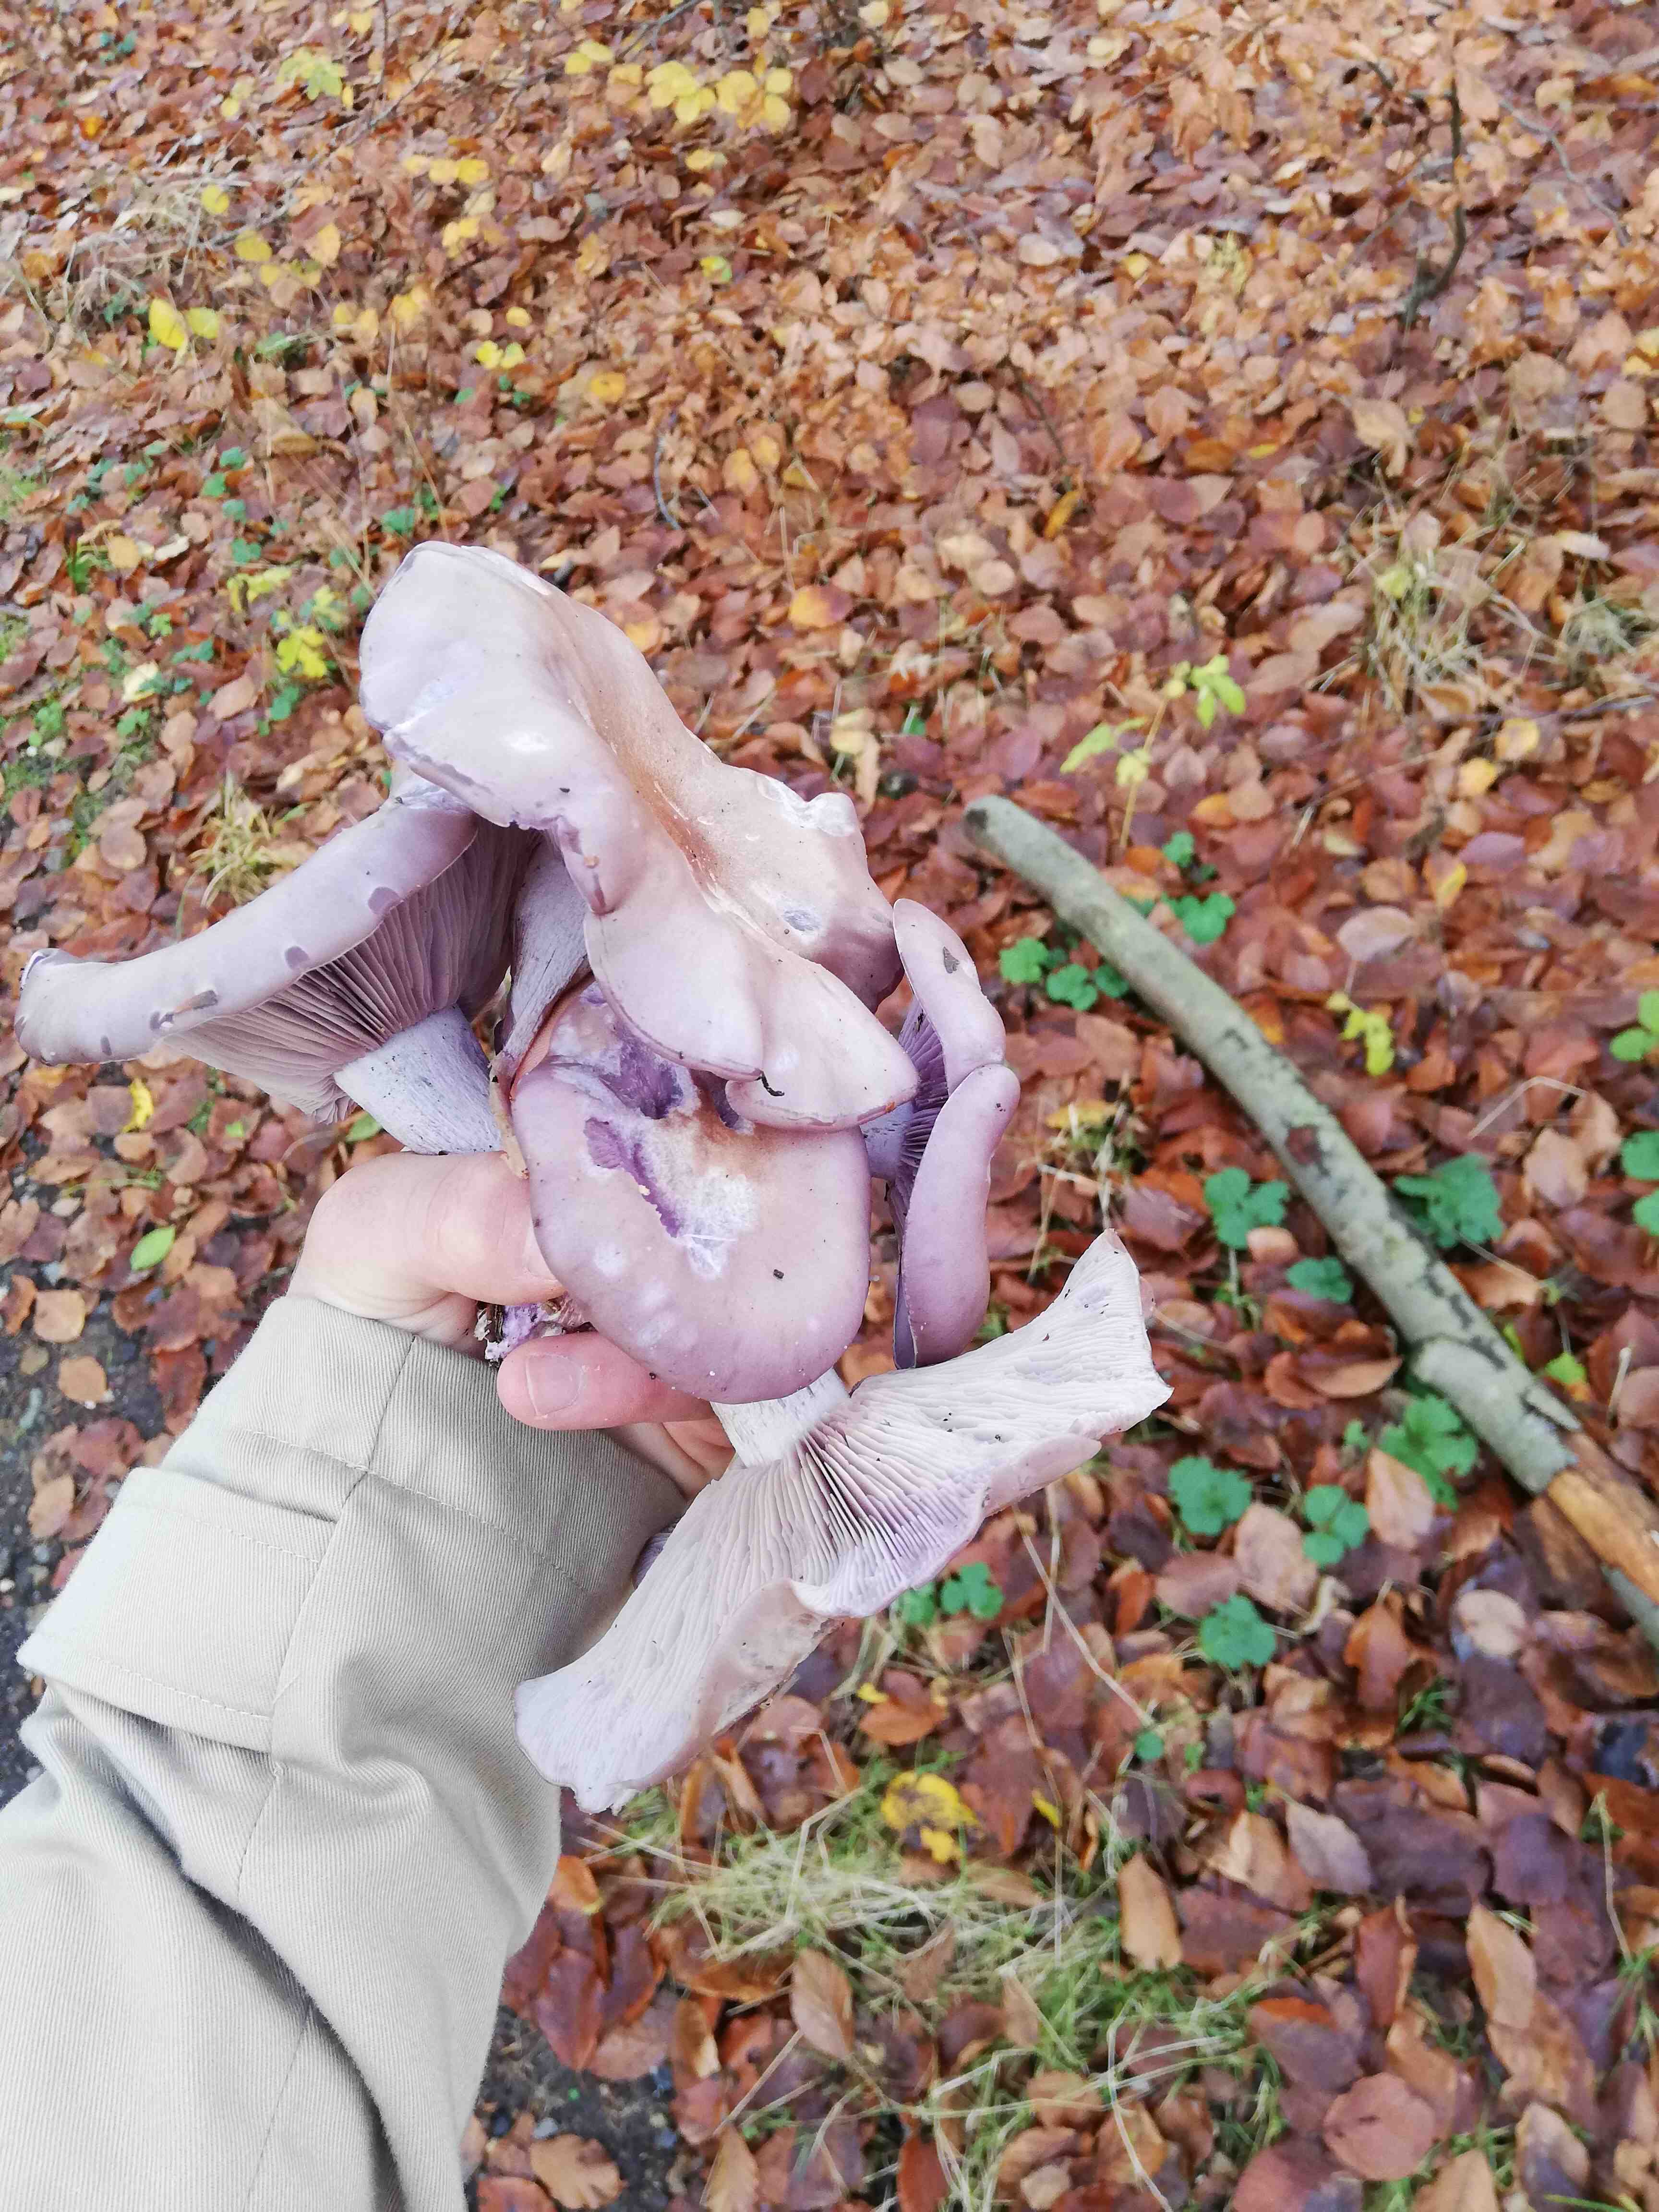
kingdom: Fungi
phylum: Basidiomycota
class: Agaricomycetes
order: Agaricales
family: Tricholomataceae
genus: Lepista
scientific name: Lepista nuda
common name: violet hekseringshat
